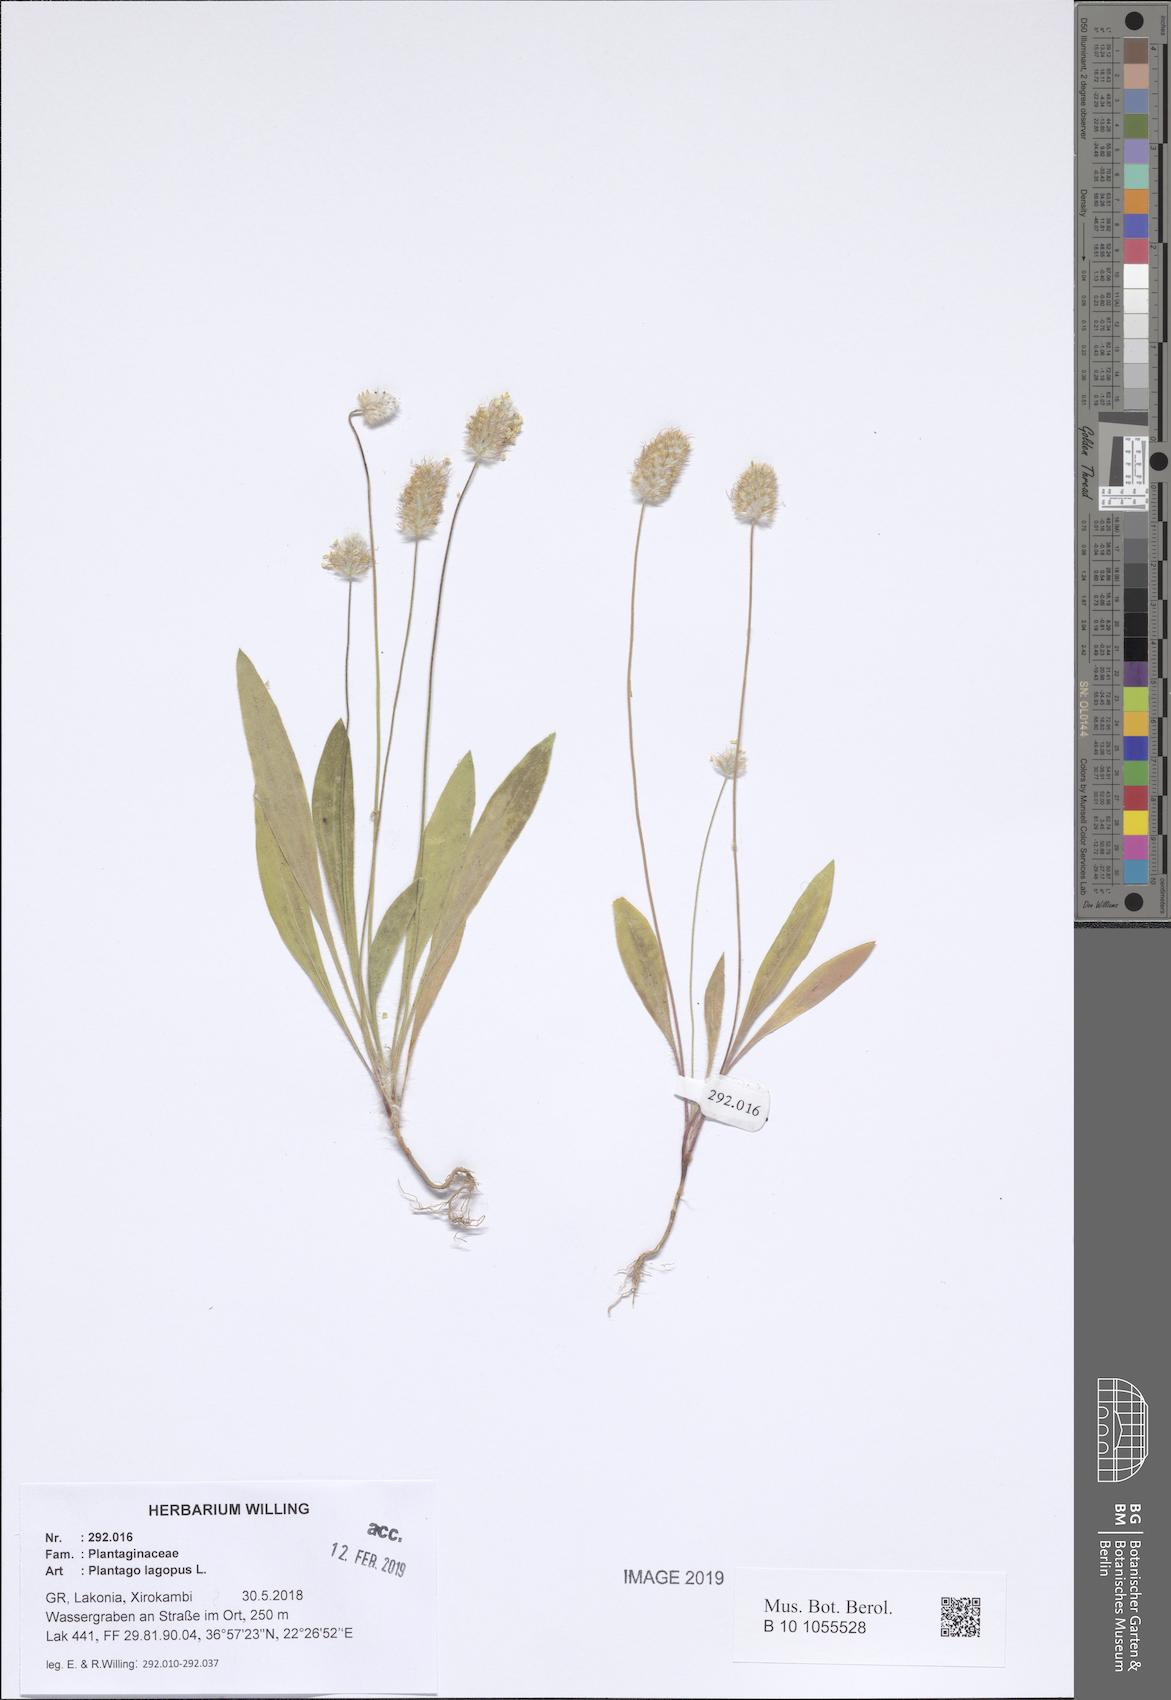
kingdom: Plantae
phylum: Tracheophyta
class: Magnoliopsida
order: Lamiales
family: Plantaginaceae
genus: Plantago
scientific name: Plantago lagopus
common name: Hare-foot plantain
